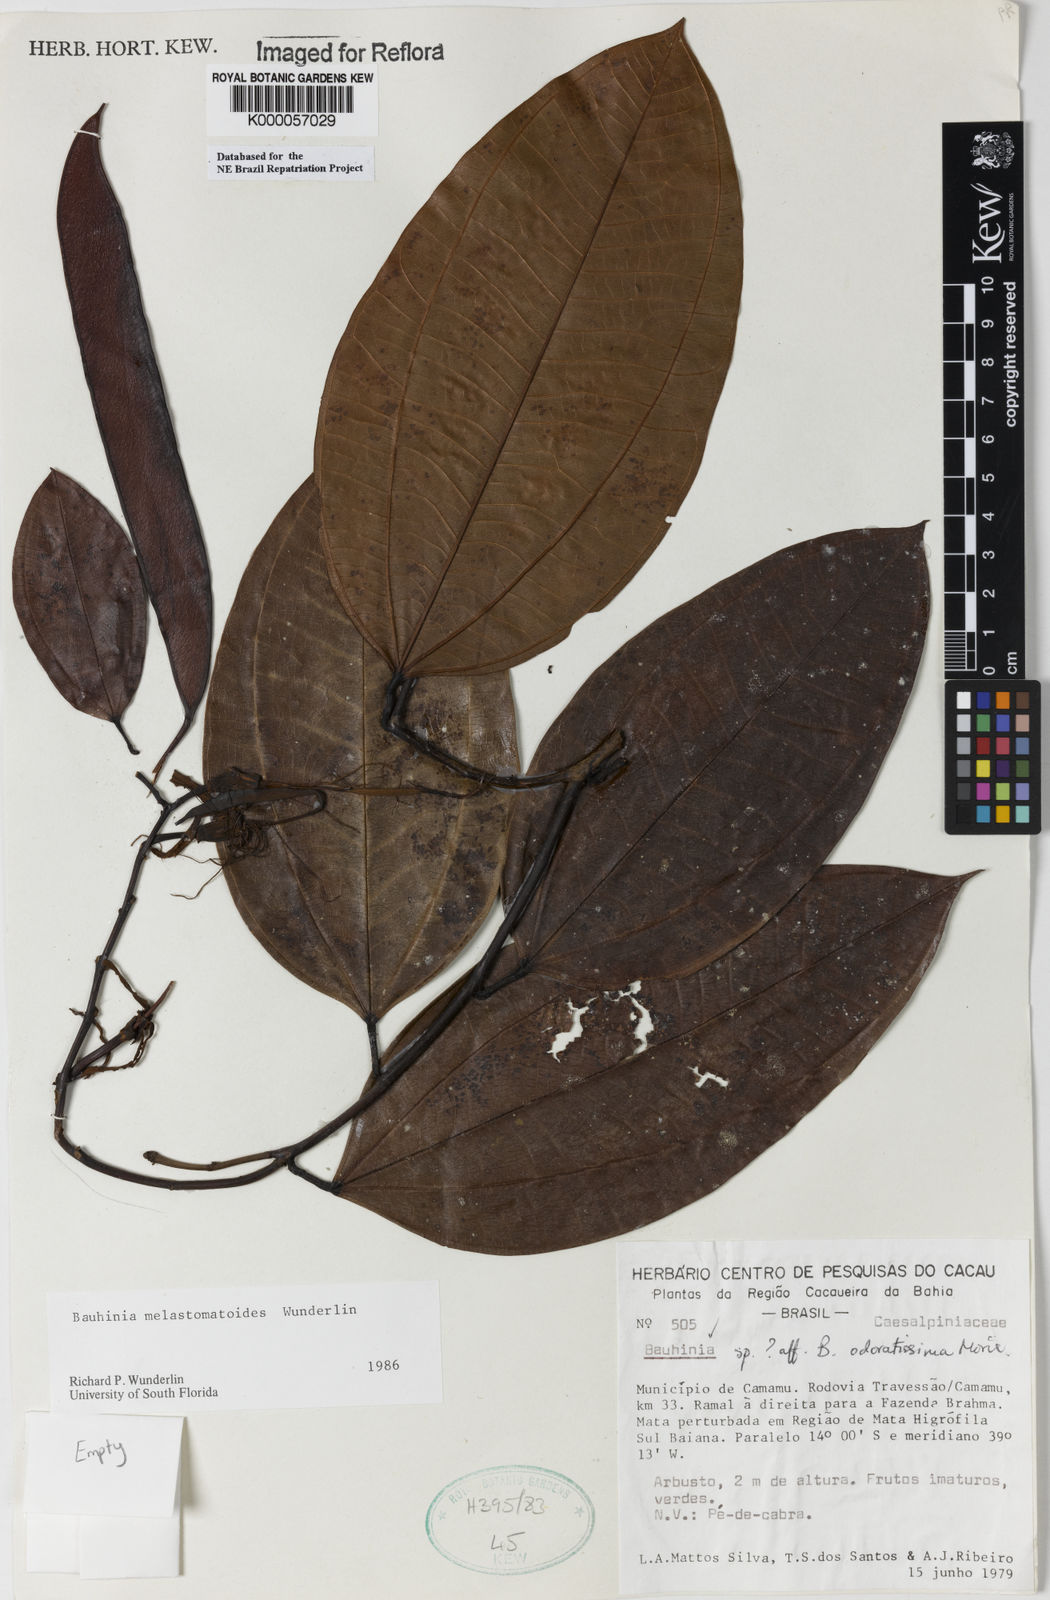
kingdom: Plantae
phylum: Tracheophyta
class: Magnoliopsida
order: Fabales
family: Fabaceae
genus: Bauhinia
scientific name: Bauhinia
